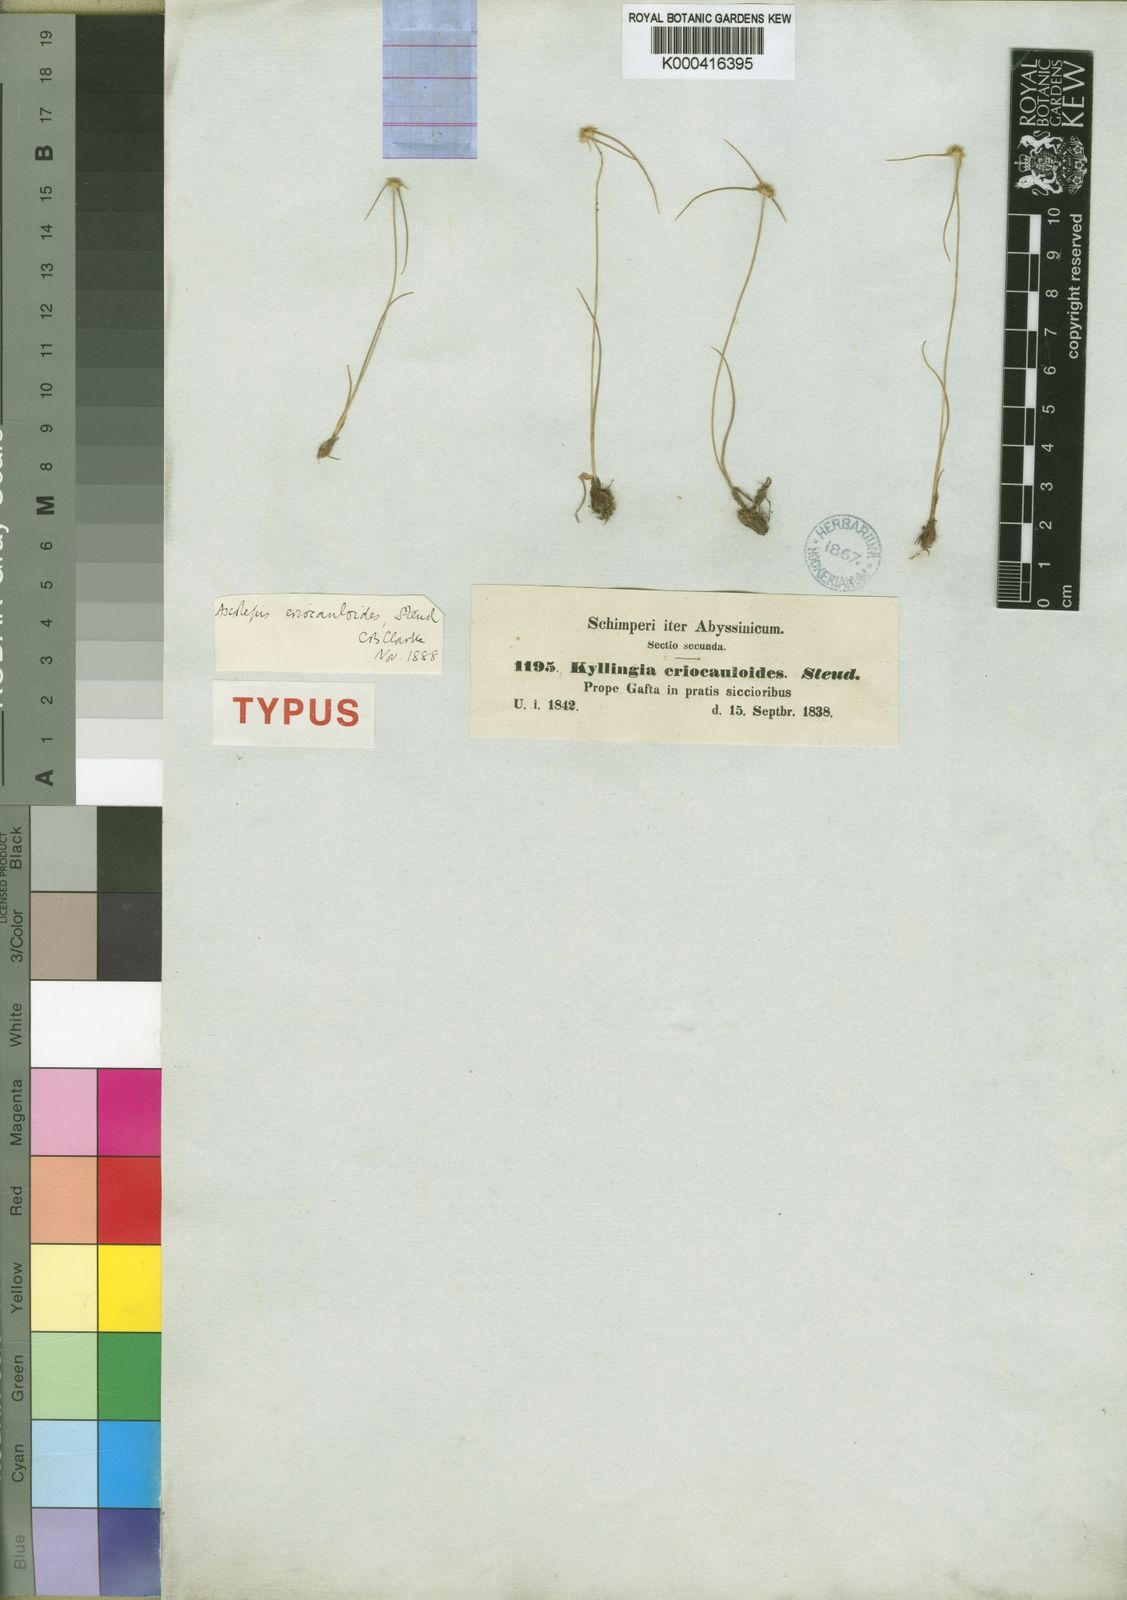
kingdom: Plantae
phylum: Tracheophyta
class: Liliopsida
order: Poales
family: Cyperaceae
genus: Cyperus
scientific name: Cyperus eriocauloides
